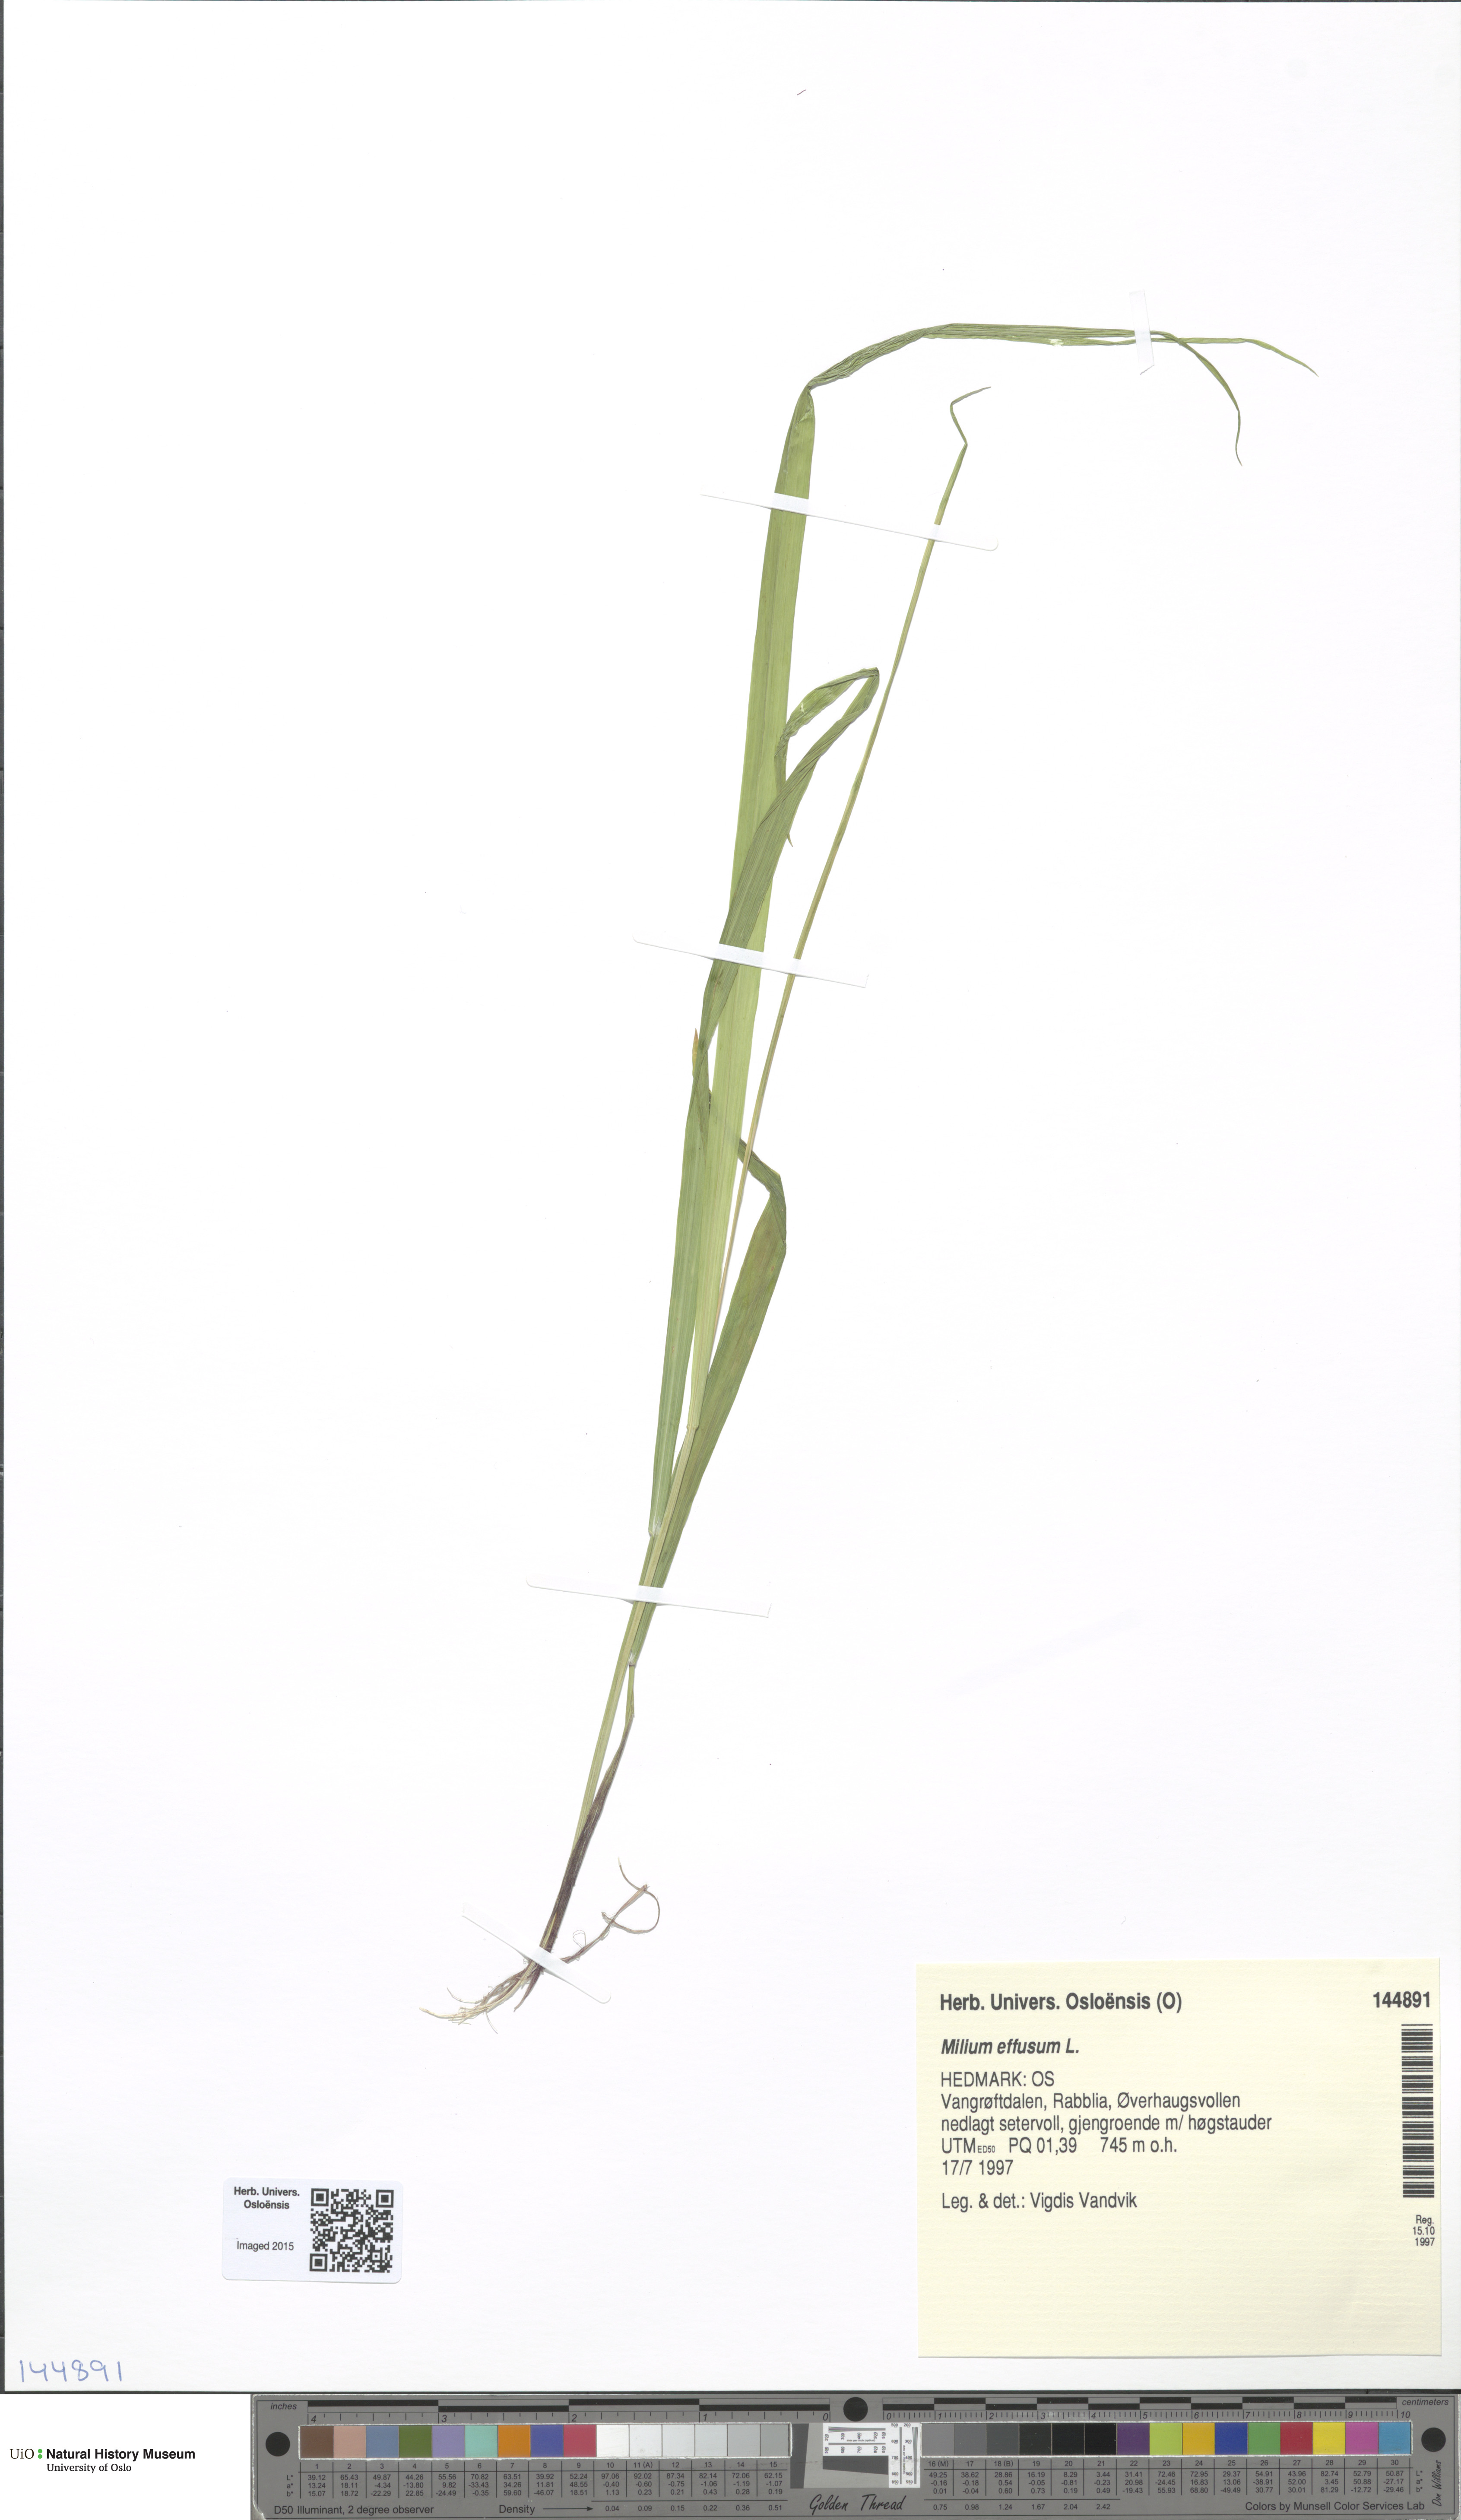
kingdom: Plantae
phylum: Tracheophyta
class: Liliopsida
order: Poales
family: Poaceae
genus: Milium
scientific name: Milium effusum
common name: Wood millet
